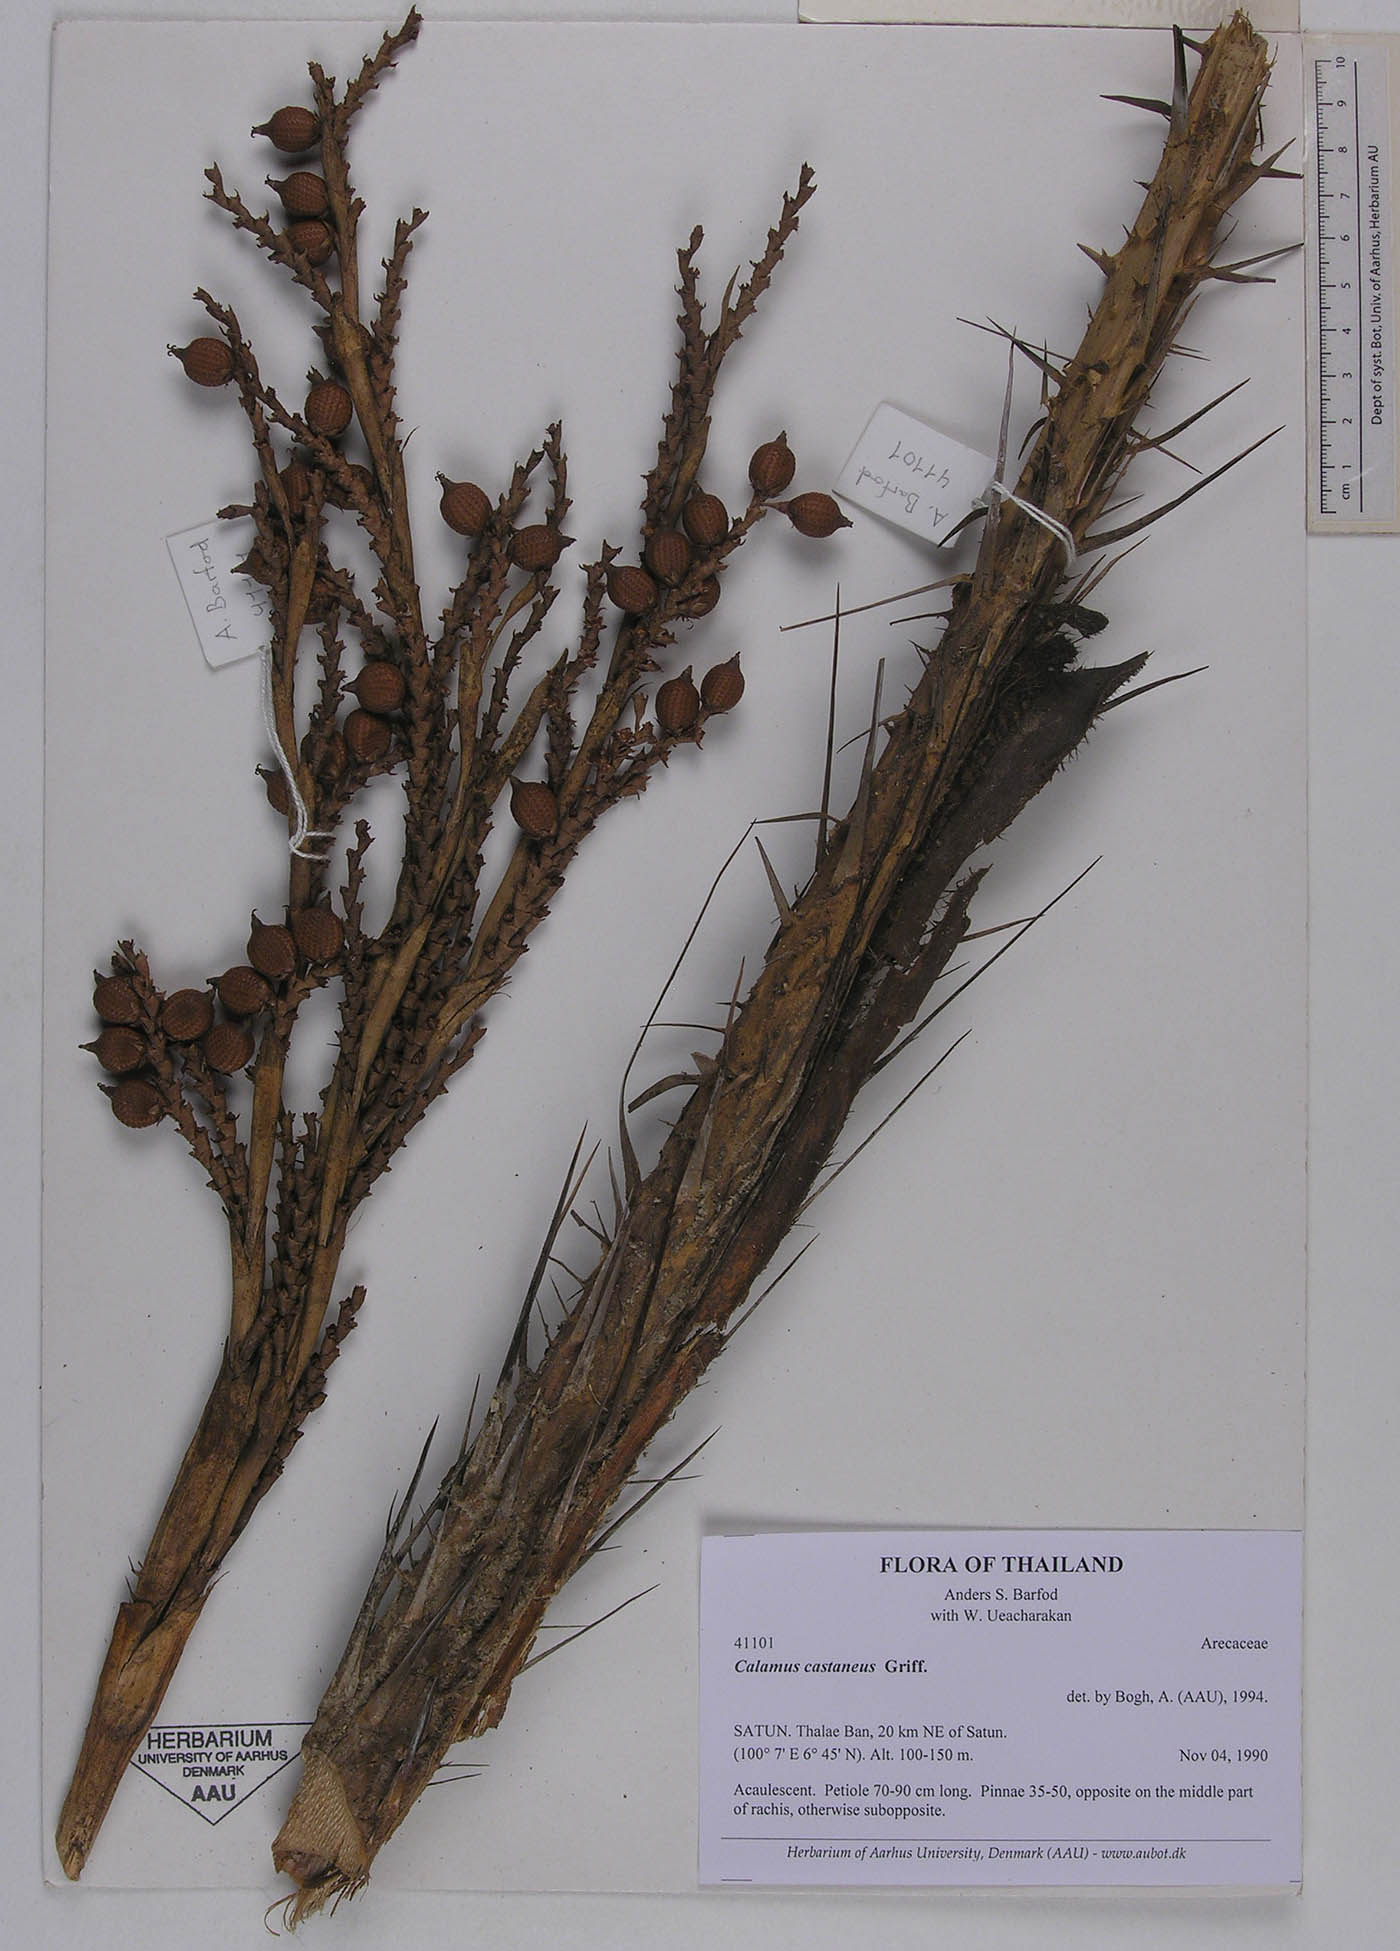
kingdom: Plantae
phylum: Tracheophyta
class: Liliopsida
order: Arecales
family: Arecaceae
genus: Calamus
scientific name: Calamus castaneus
